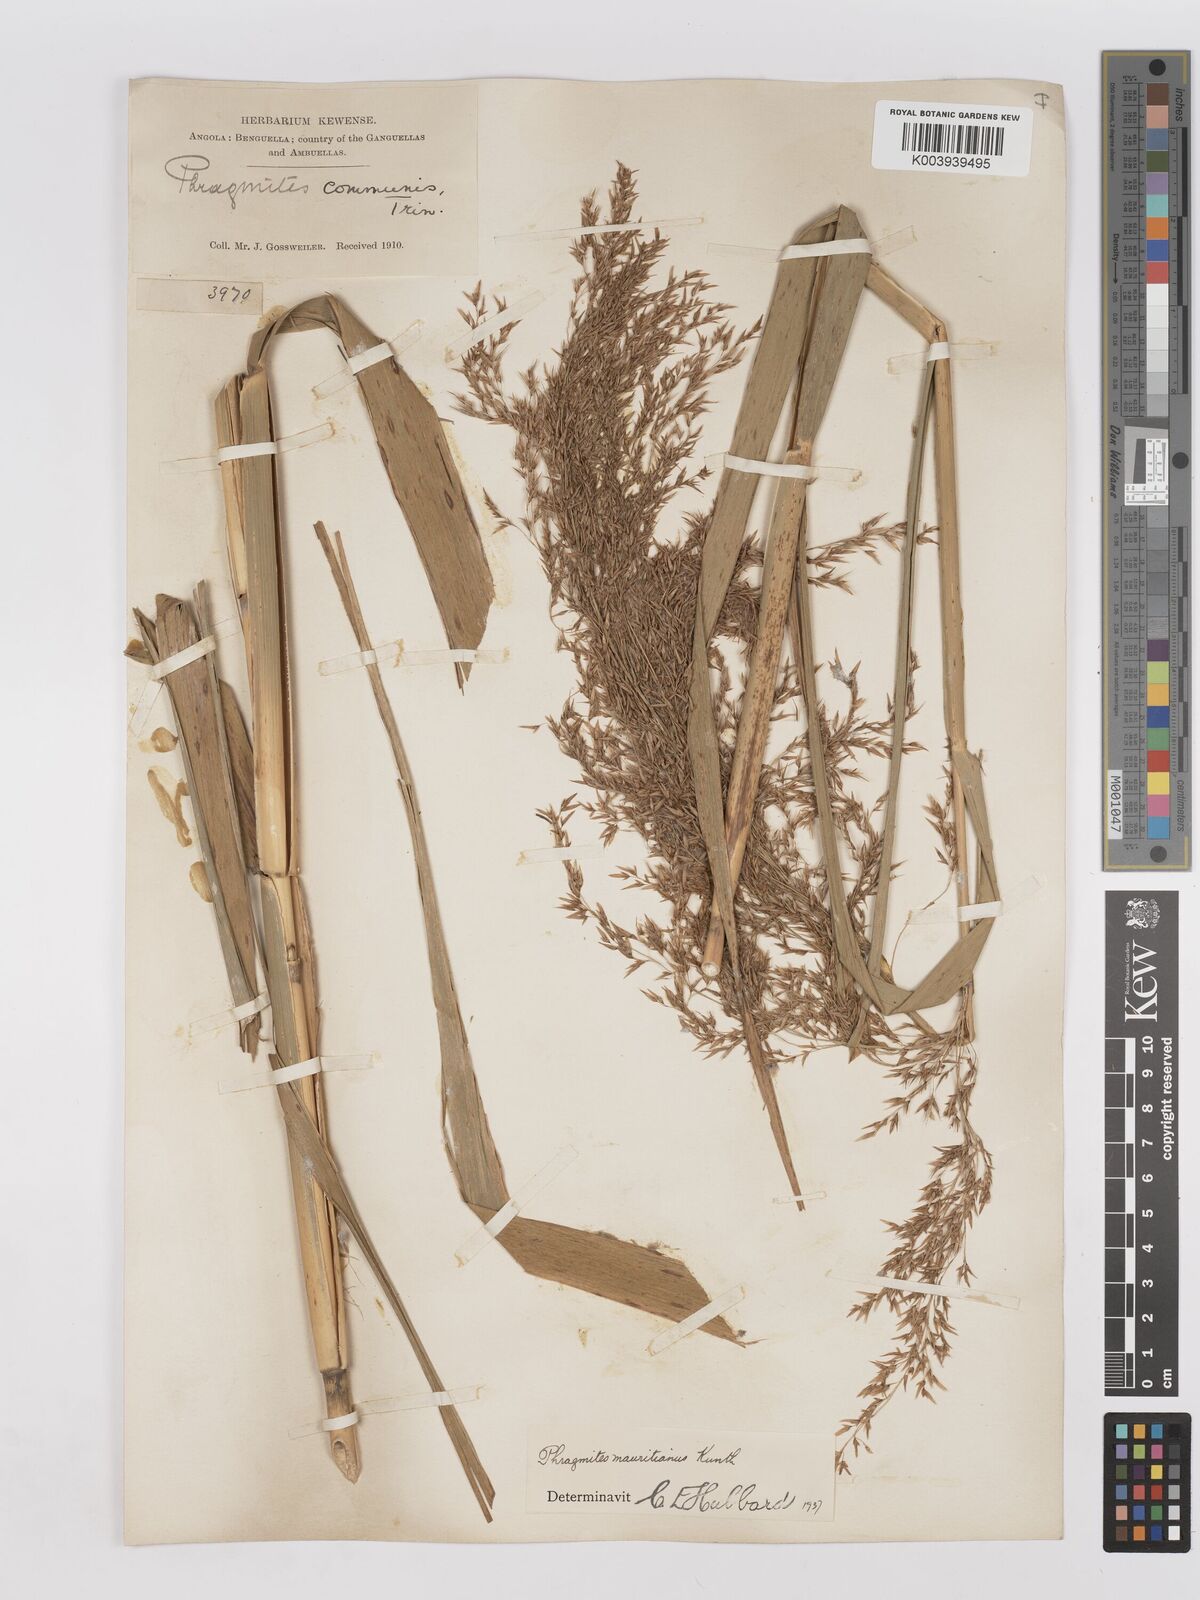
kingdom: Plantae
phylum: Tracheophyta
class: Liliopsida
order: Poales
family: Poaceae
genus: Phragmites
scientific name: Phragmites mauritianus
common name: Reed grass
